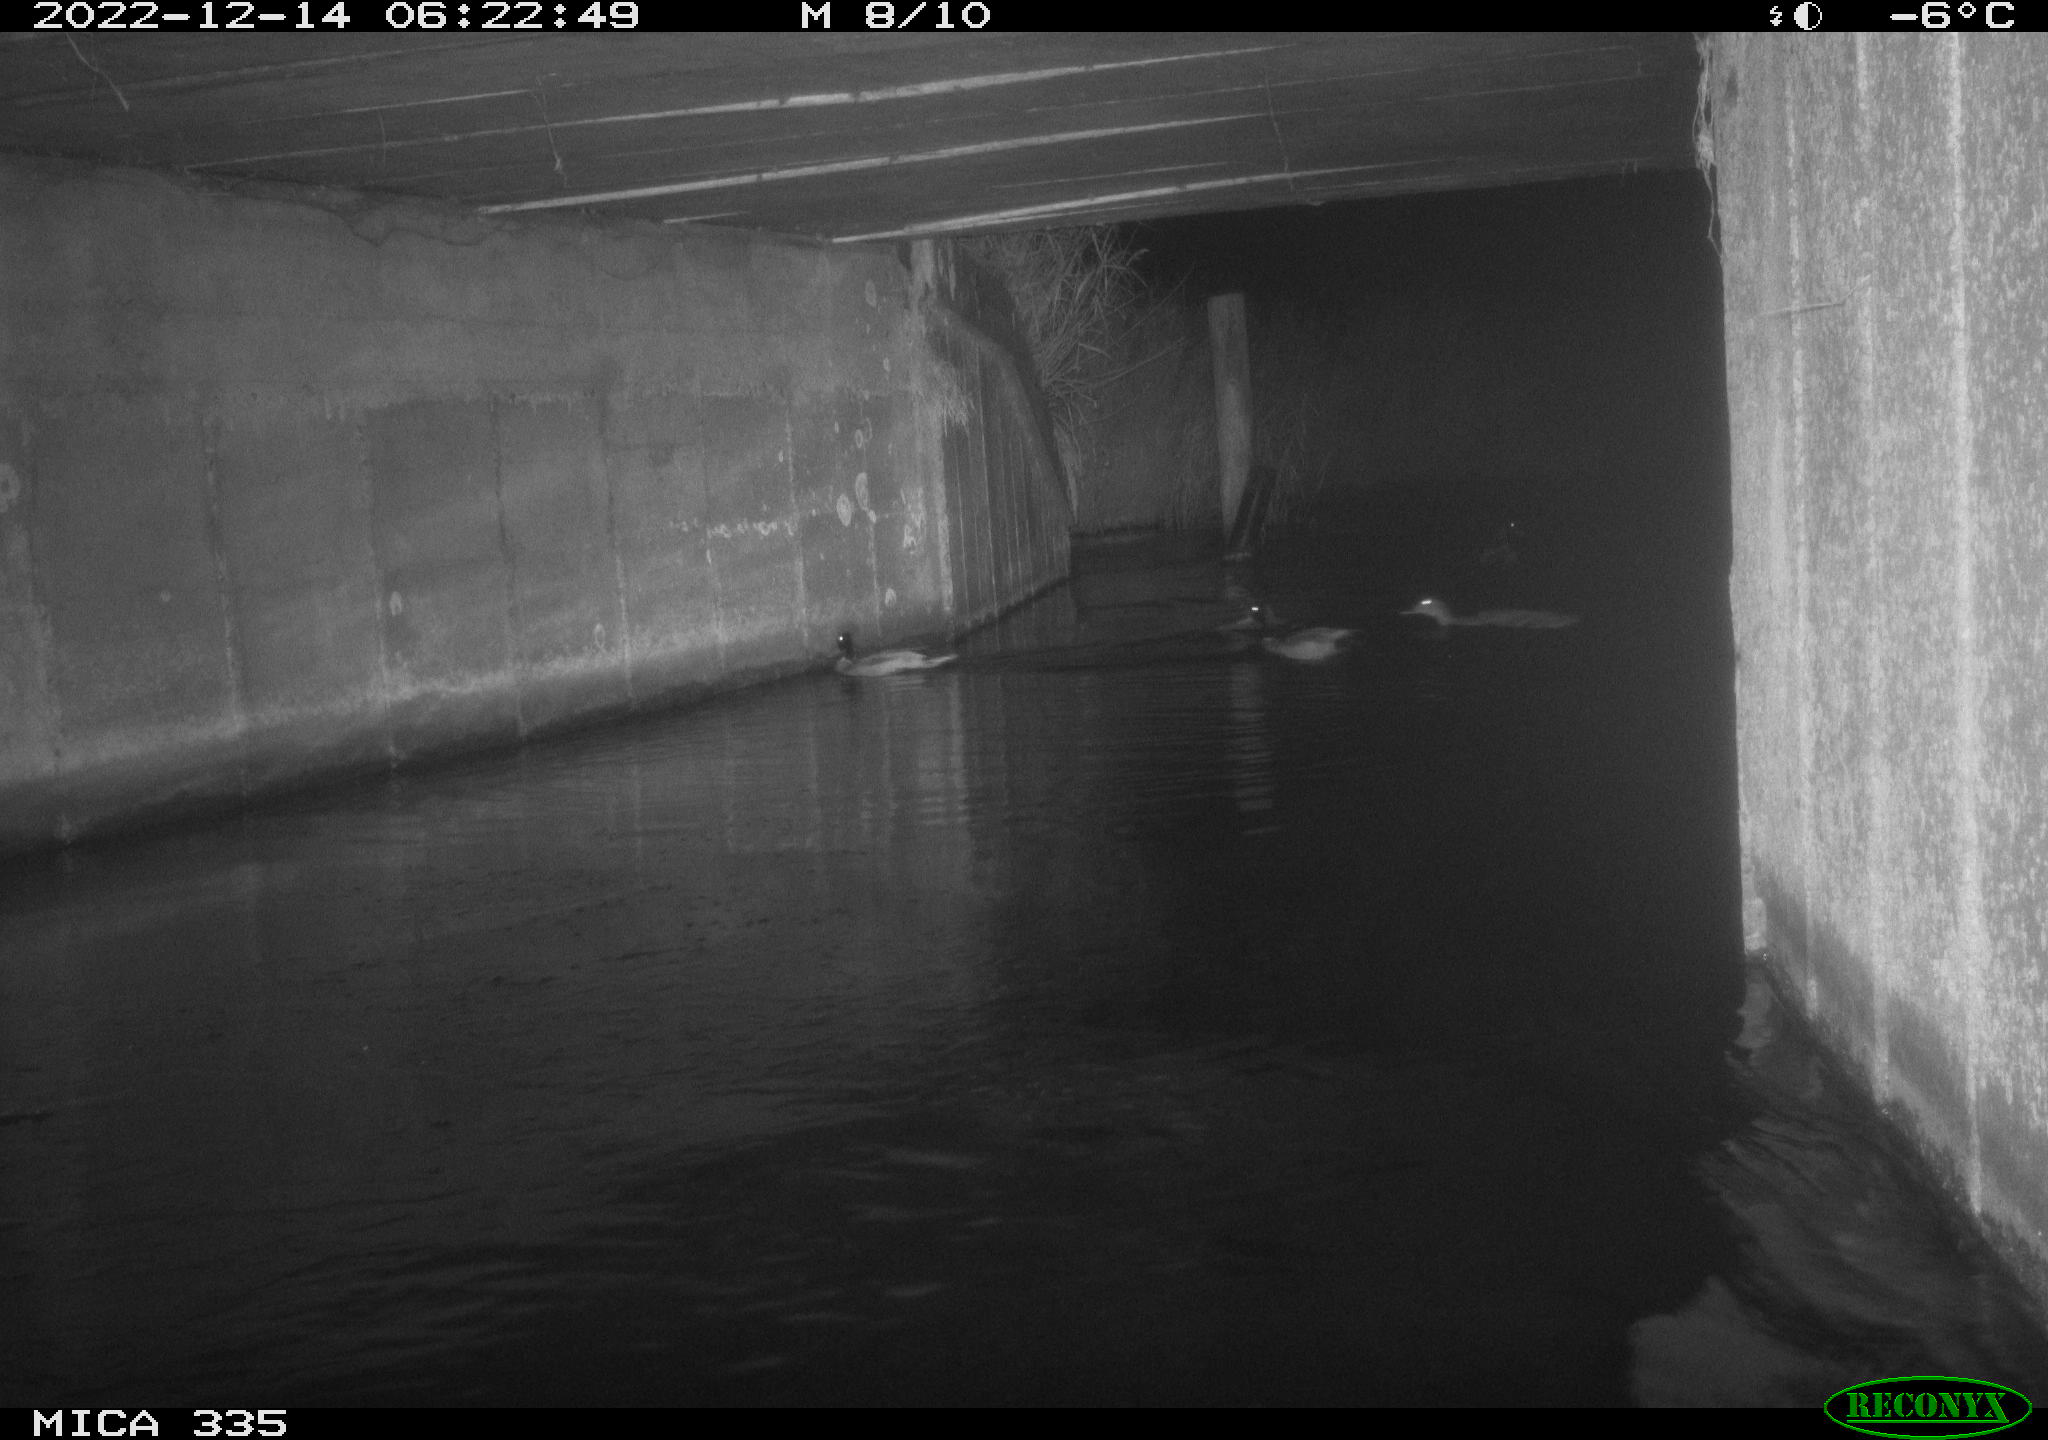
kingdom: Animalia
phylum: Chordata
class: Aves
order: Anseriformes
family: Anatidae
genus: Anas
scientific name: Anas
